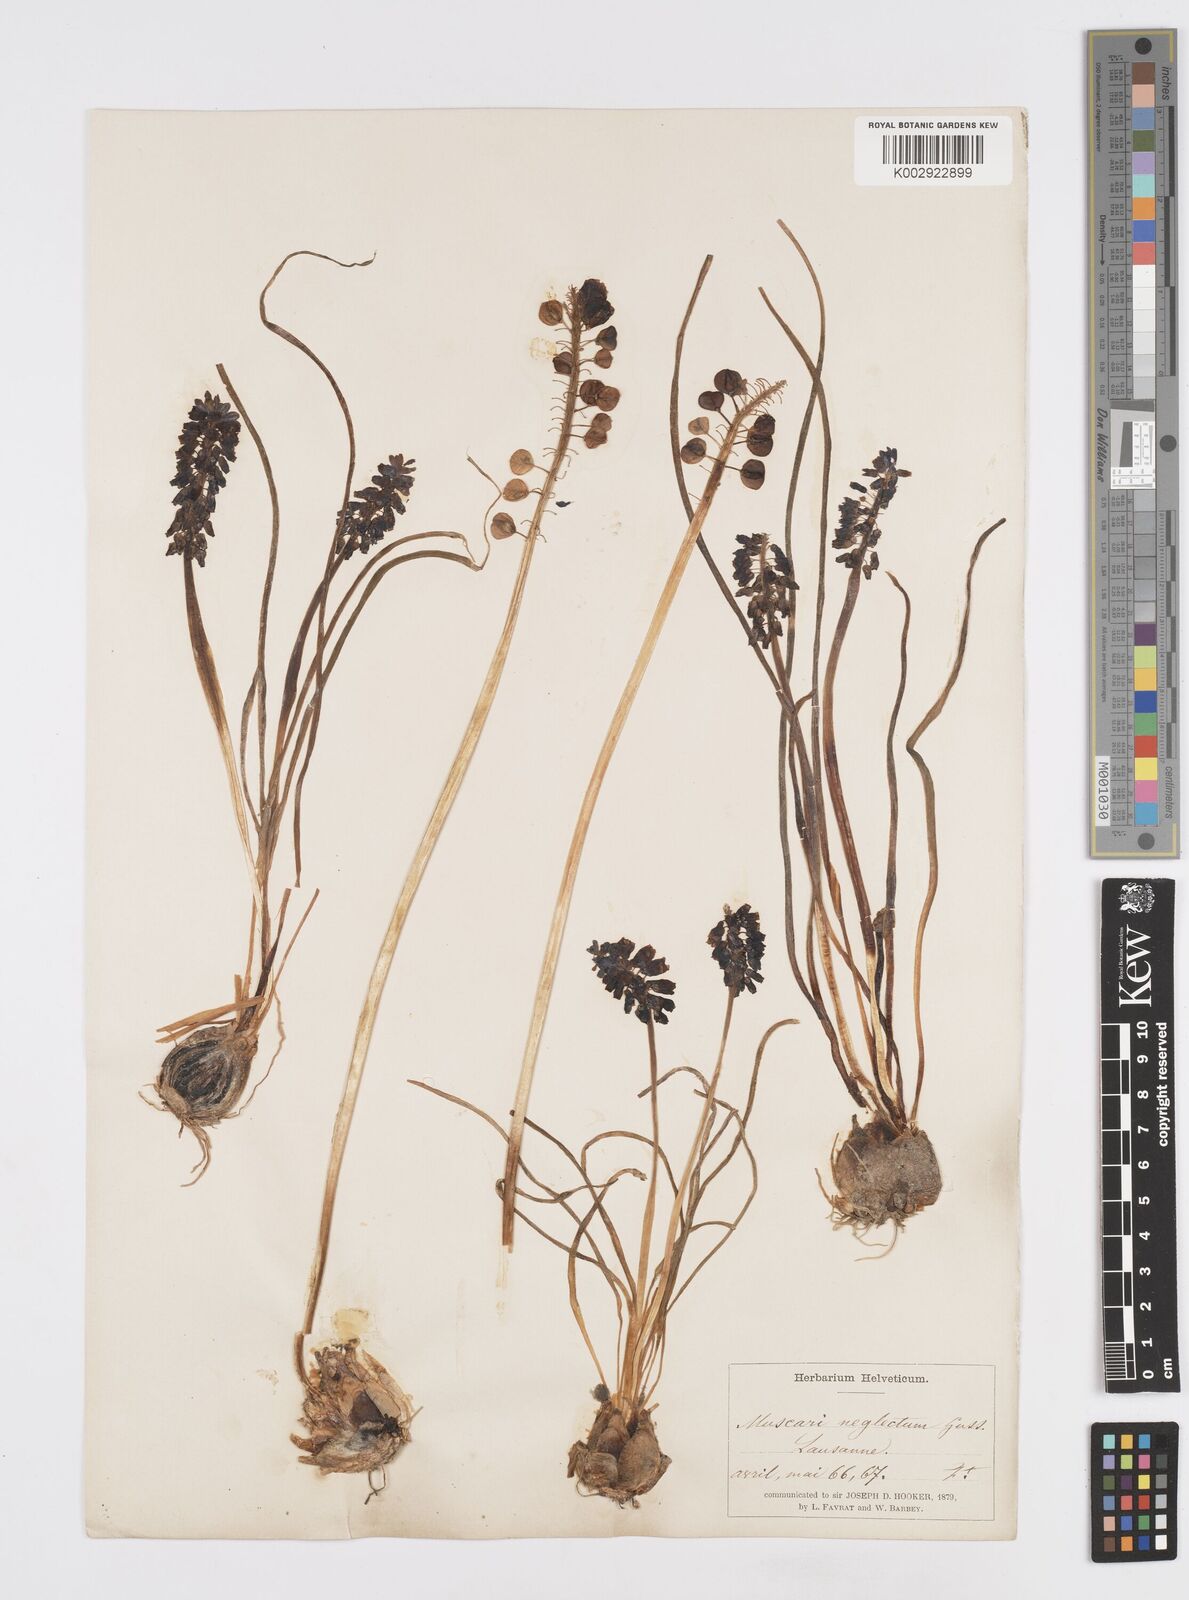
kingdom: Plantae
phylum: Tracheophyta
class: Liliopsida
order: Asparagales
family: Asparagaceae
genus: Muscarimia
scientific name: Muscarimia muscari
